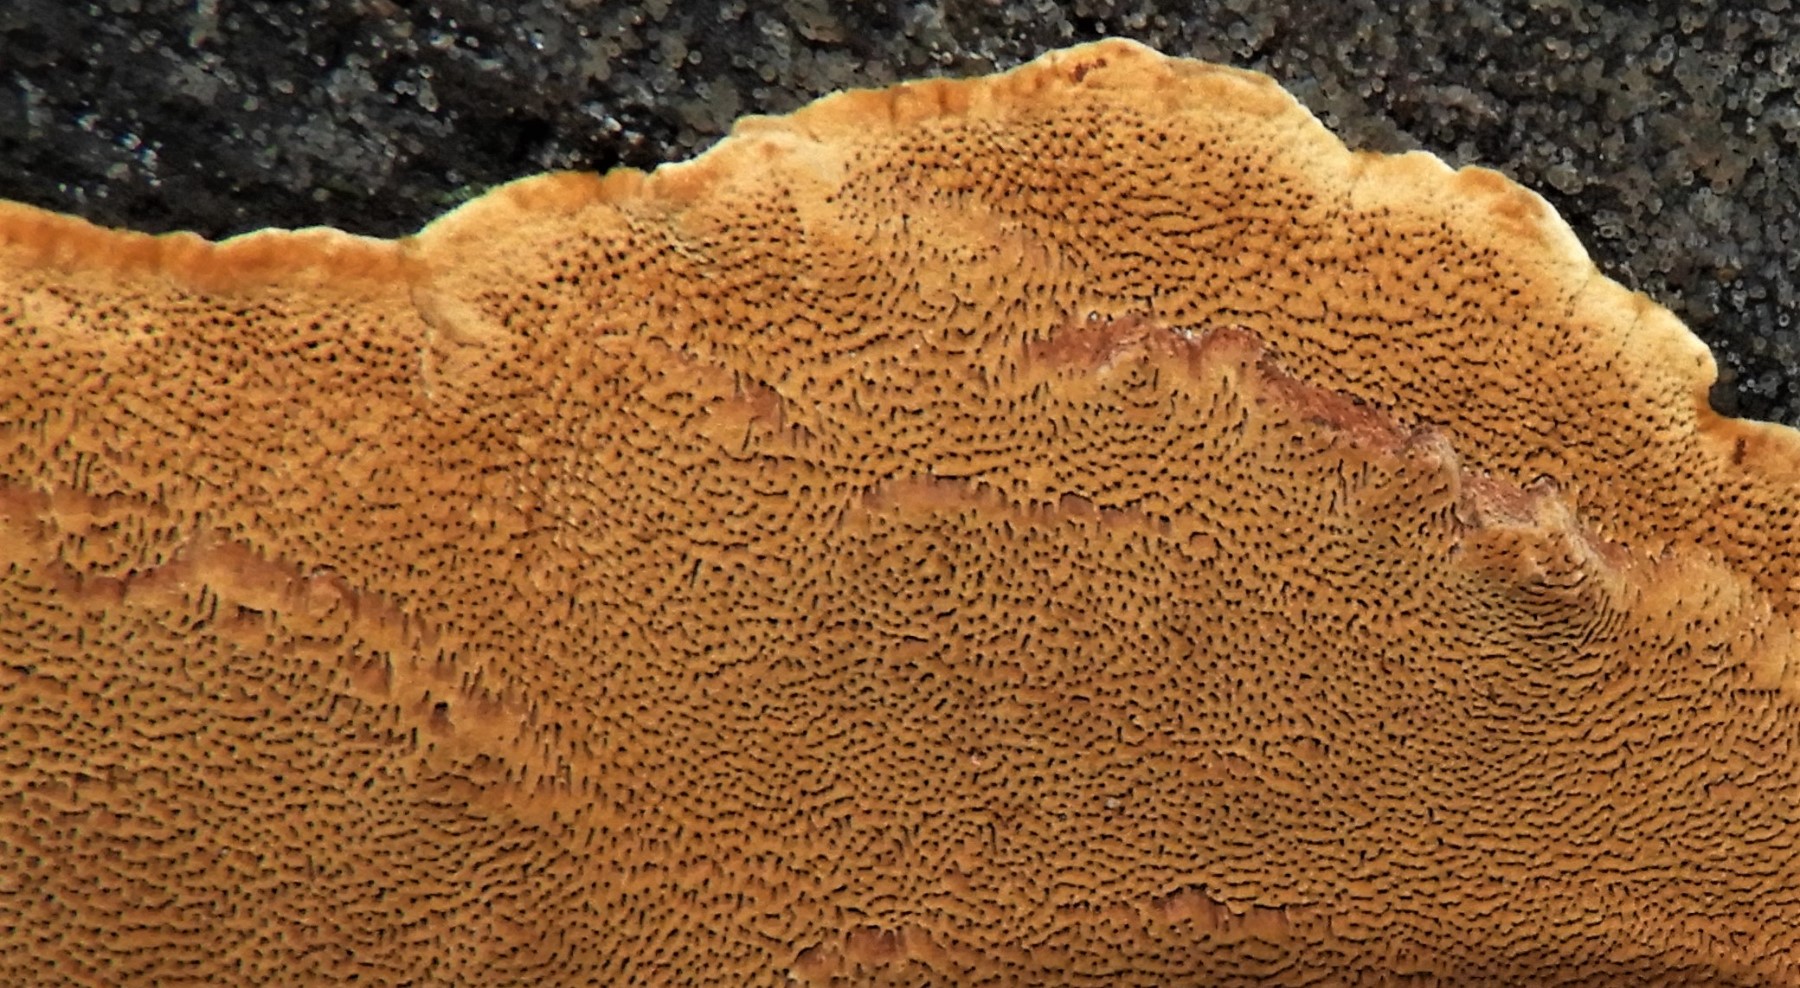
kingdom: Fungi
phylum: Basidiomycota
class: Agaricomycetes
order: Hymenochaetales
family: Hymenochaetaceae
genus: Fuscoporia
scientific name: Fuscoporia ferrea
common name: skorpe-ildporesvamp
